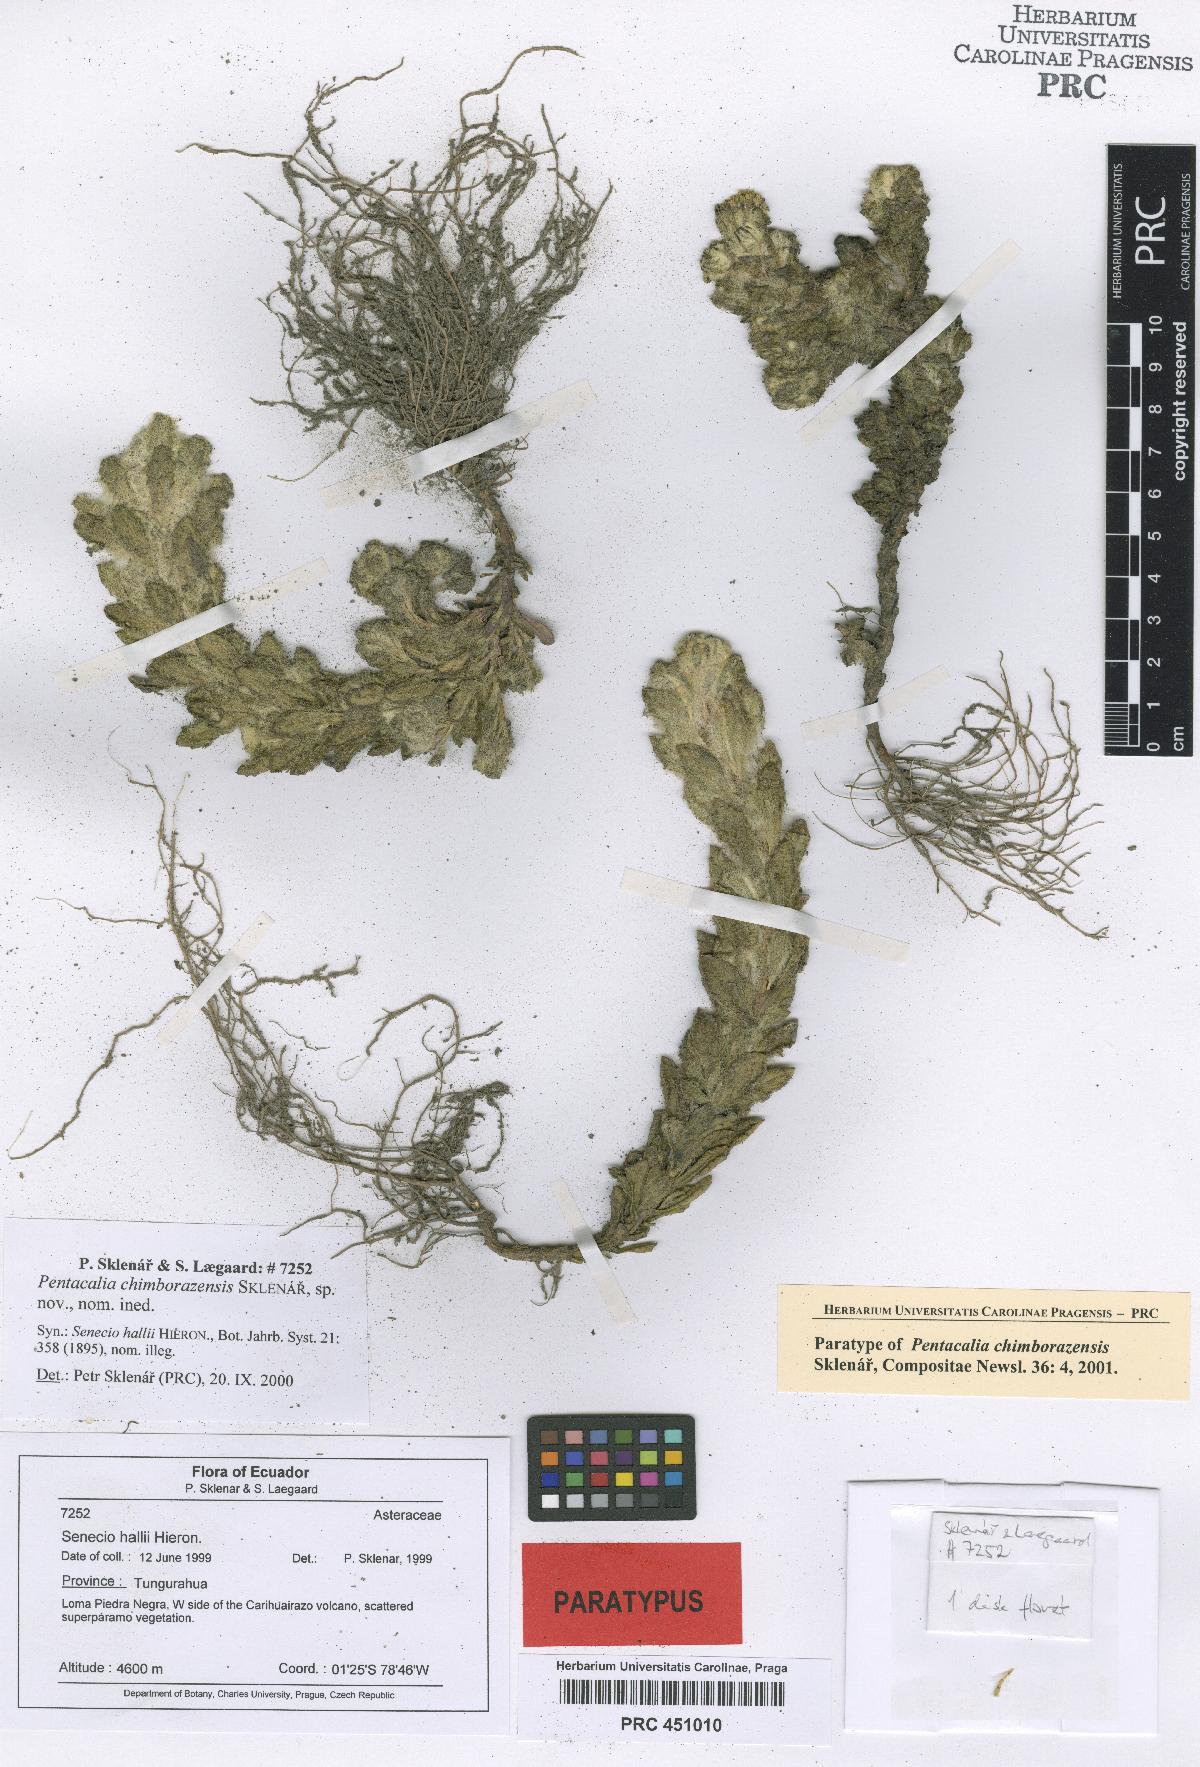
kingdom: Plantae
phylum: Tracheophyta
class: Magnoliopsida
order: Asterales
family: Asteraceae
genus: Monticalia
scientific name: Monticalia chimborazensis
